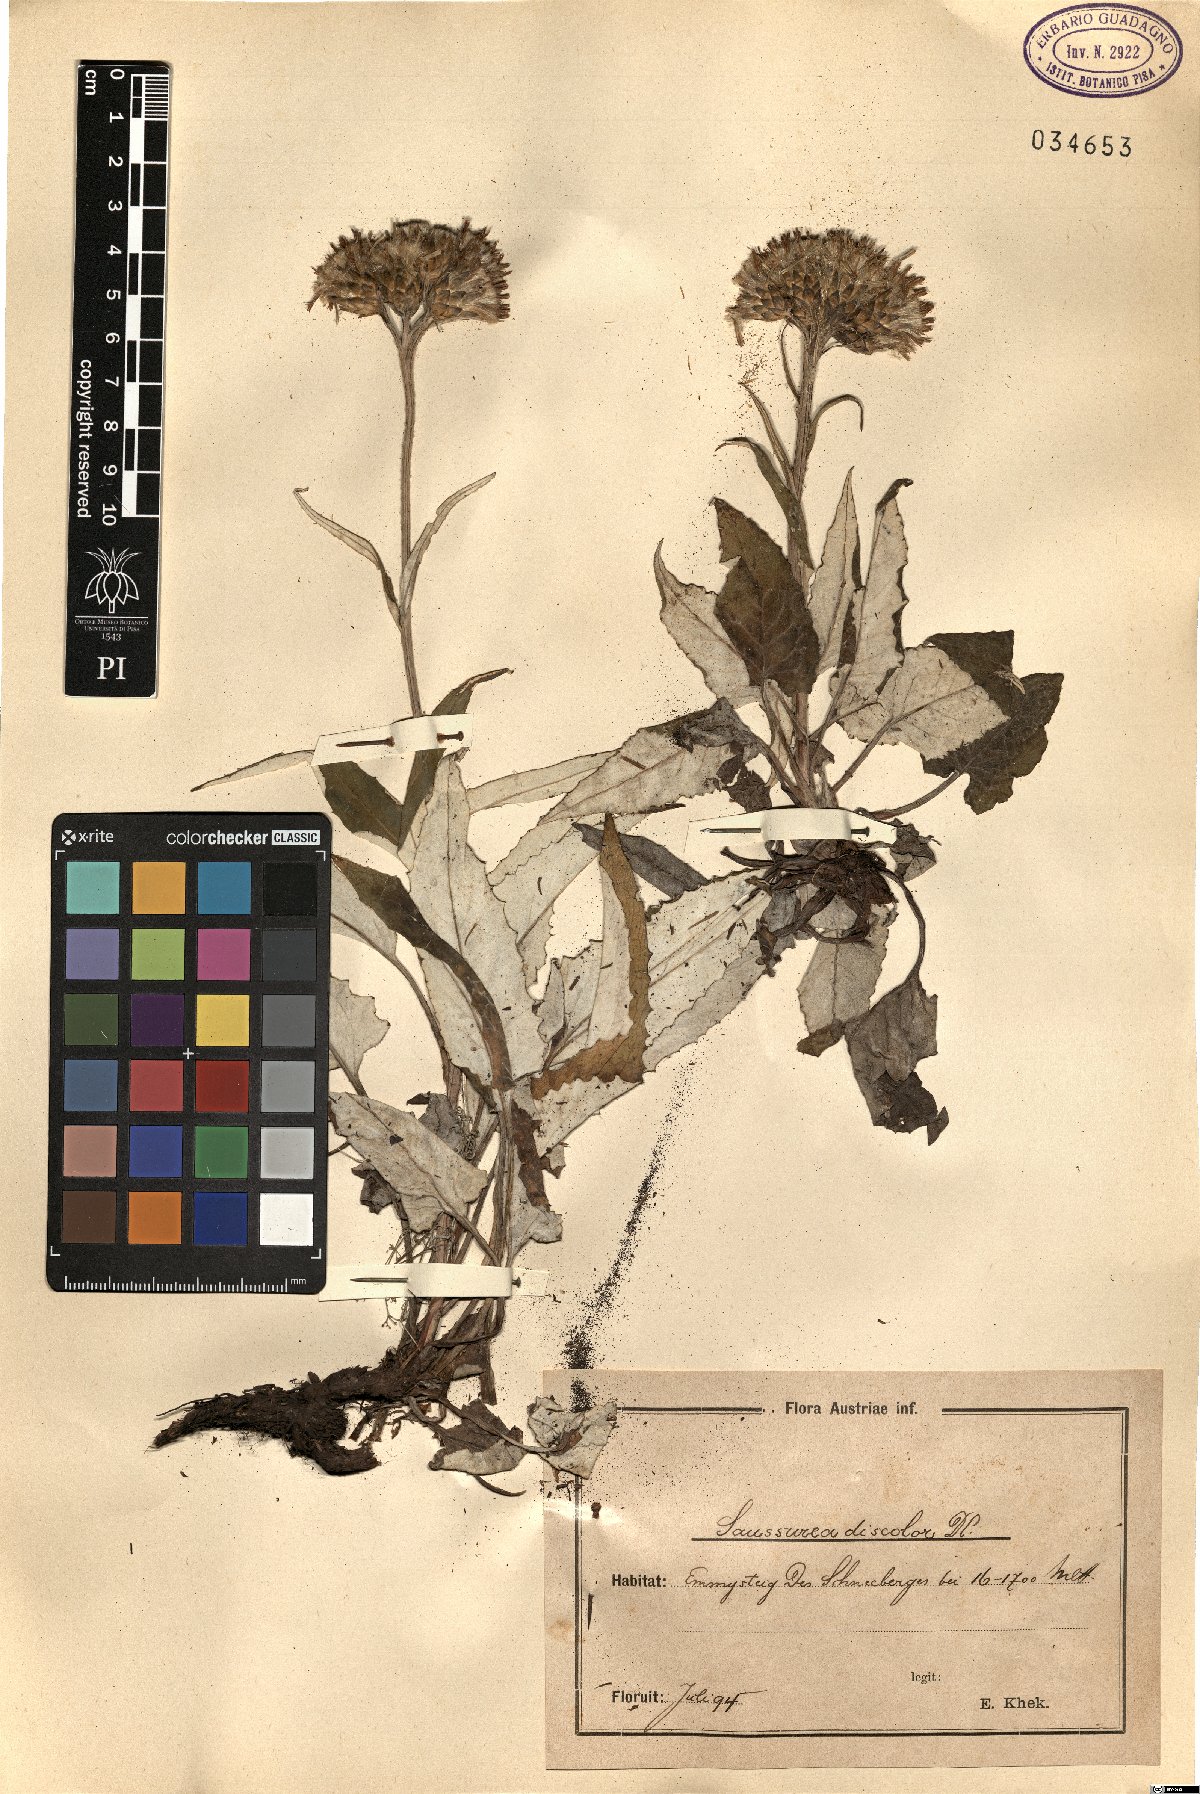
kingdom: Plantae
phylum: Tracheophyta
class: Magnoliopsida
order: Asterales
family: Asteraceae
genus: Saussurea
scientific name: Saussurea discolor
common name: Heart-leaved saussurea
